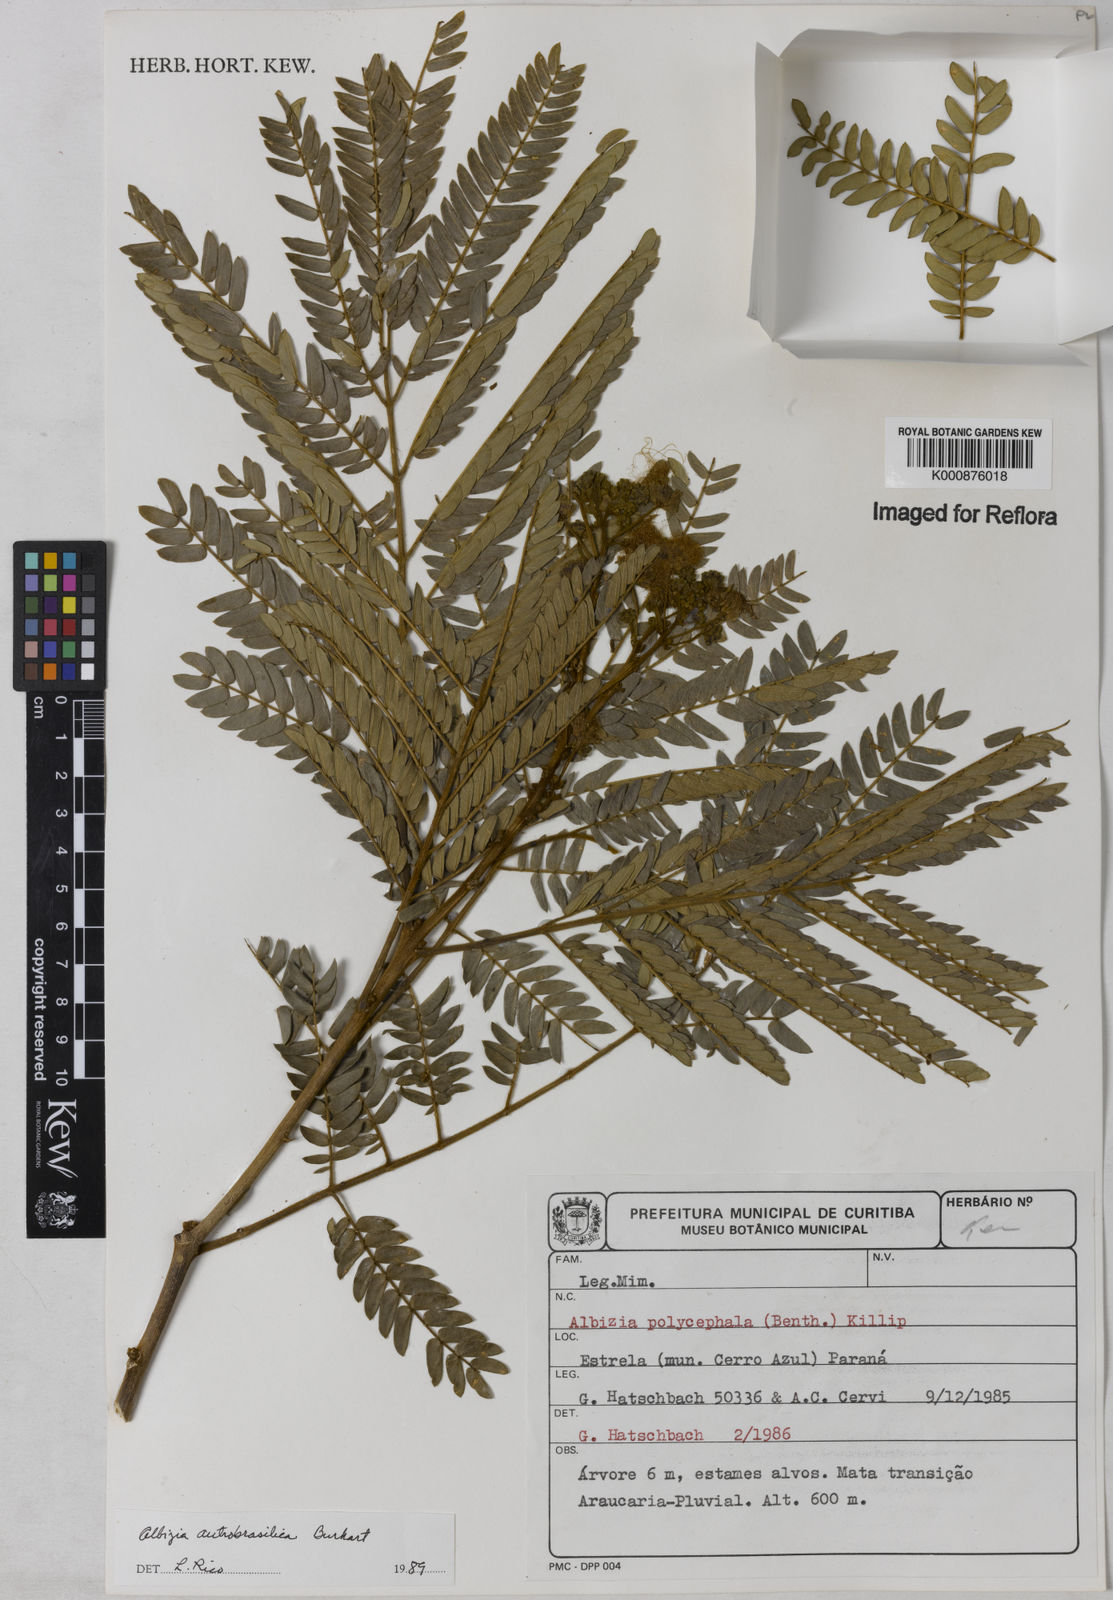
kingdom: Plantae
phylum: Tracheophyta
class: Magnoliopsida
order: Fabales
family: Fabaceae
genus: Albizia
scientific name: Albizia edwallii
